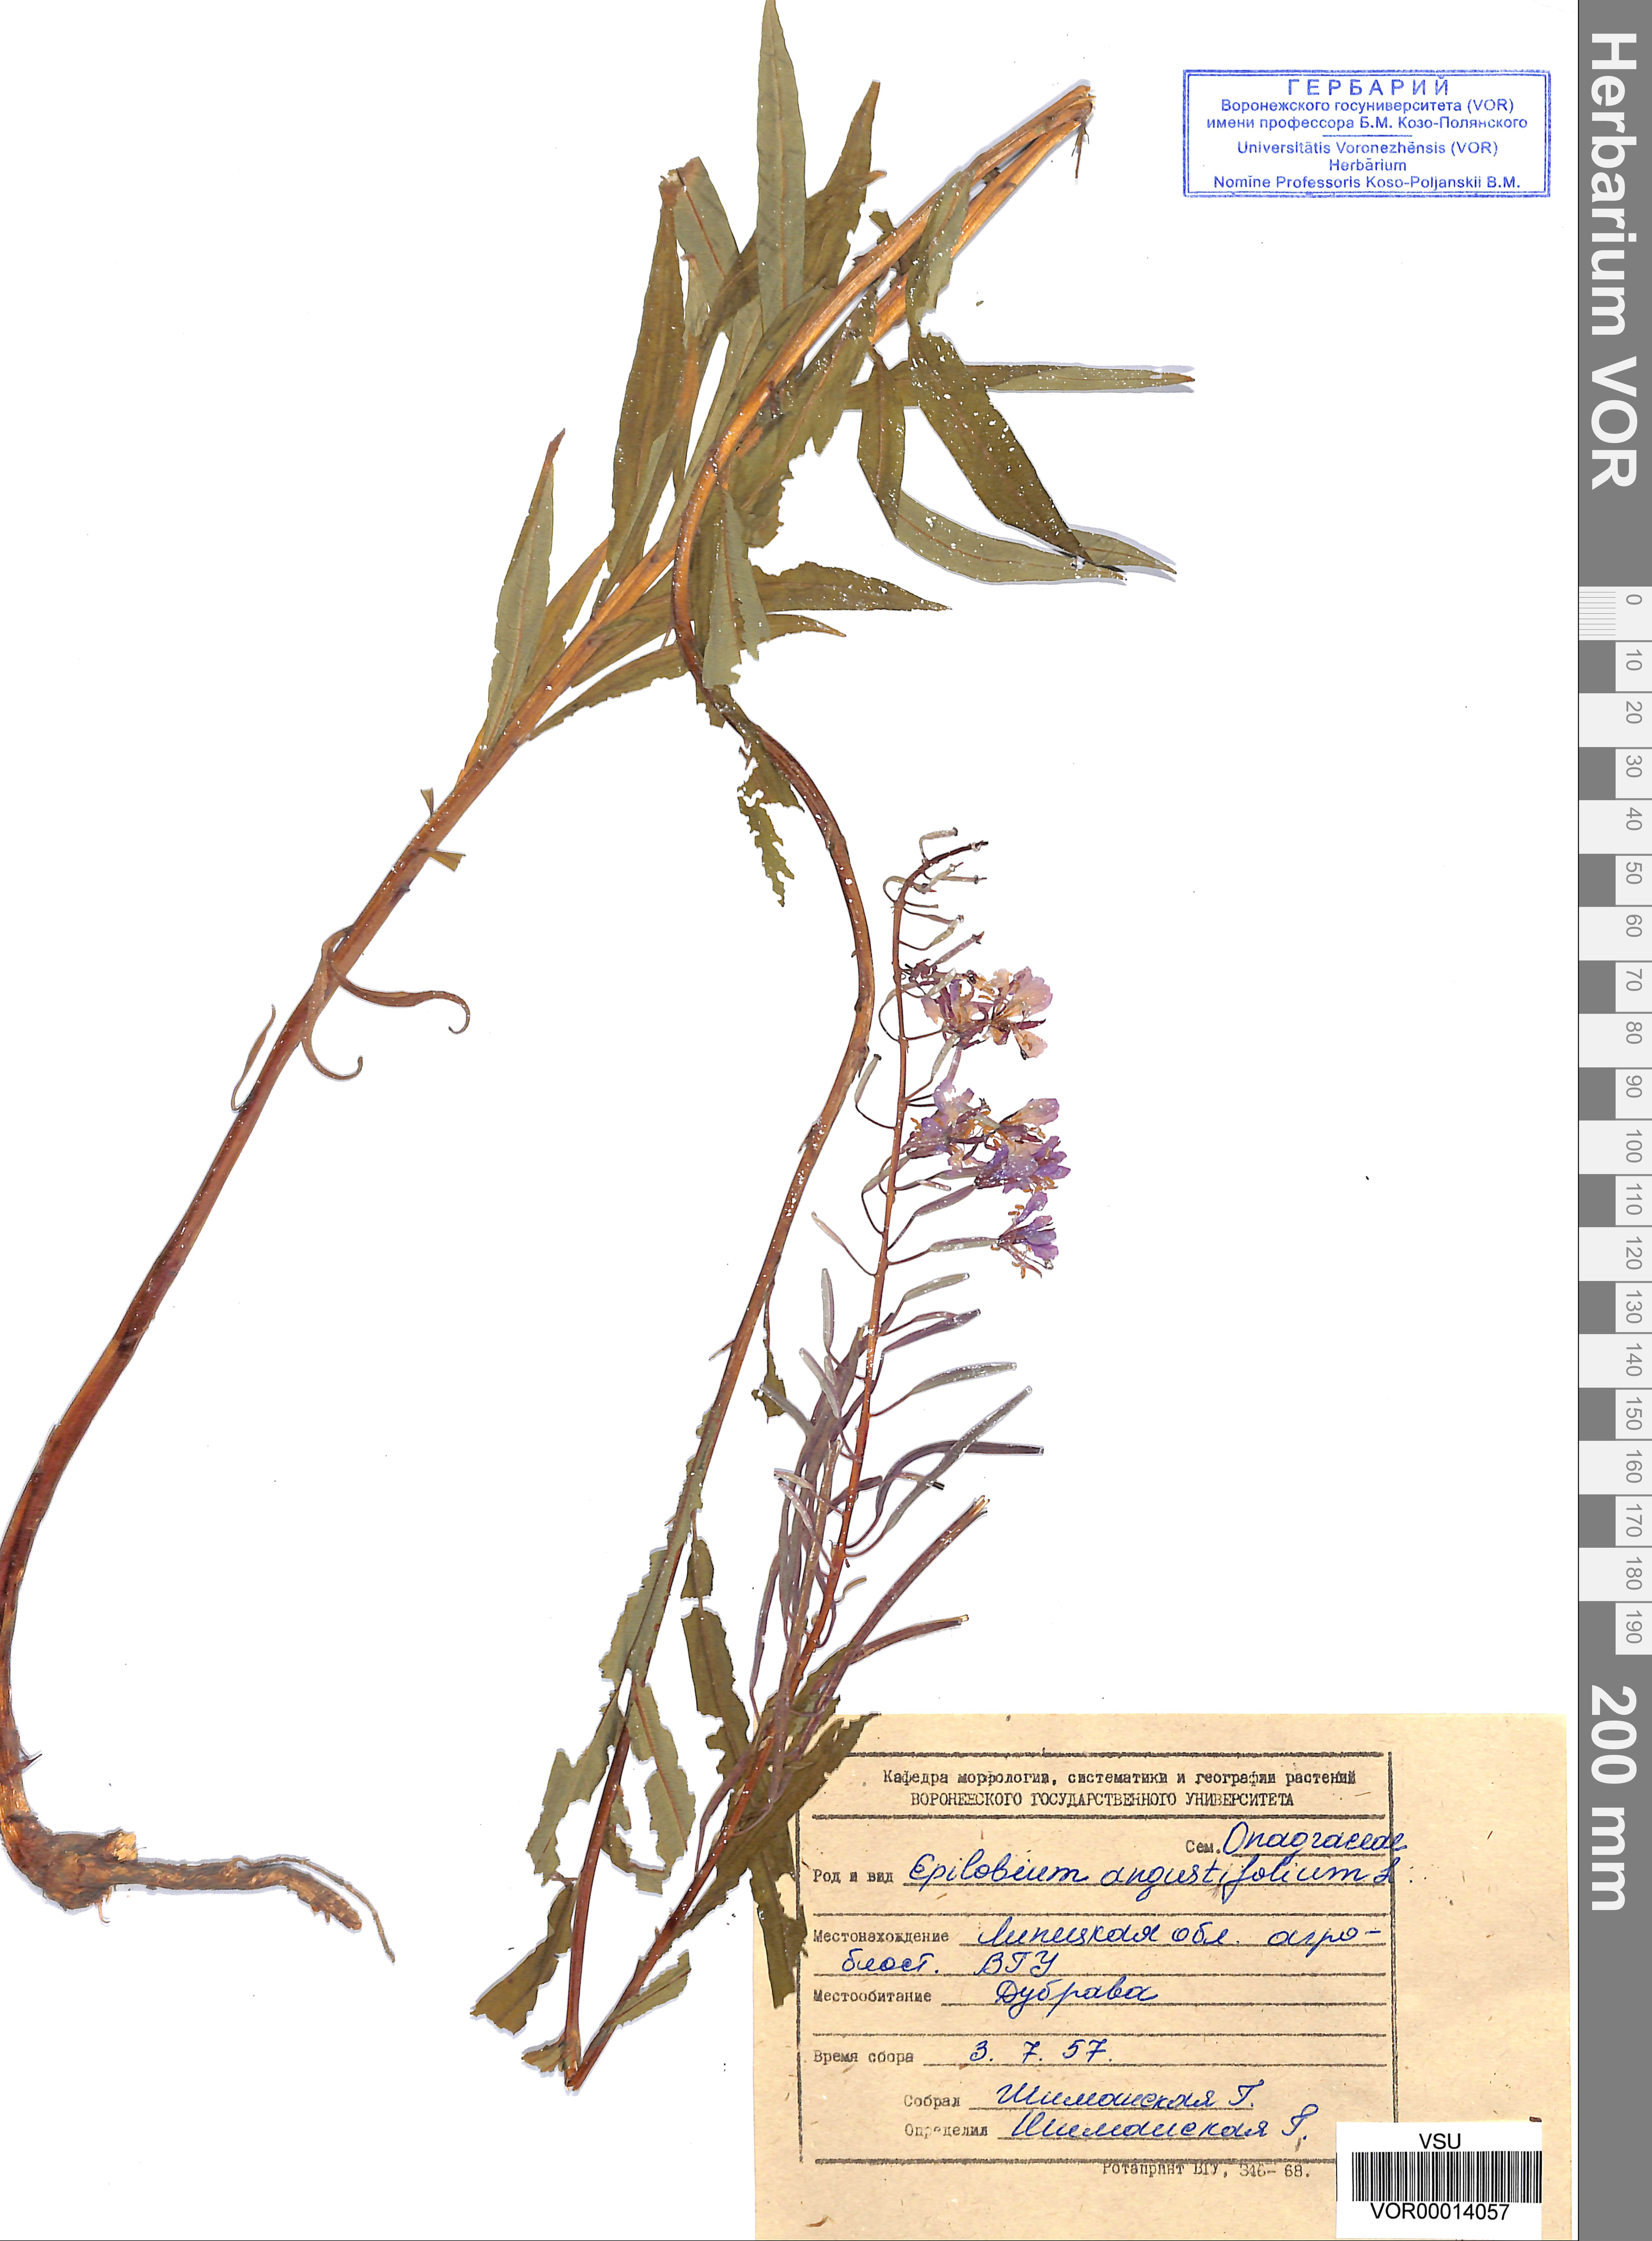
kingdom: Plantae
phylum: Tracheophyta
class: Magnoliopsida
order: Myrtales
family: Onagraceae
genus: Chamaenerion
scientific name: Chamaenerion angustifolium
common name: Fireweed
